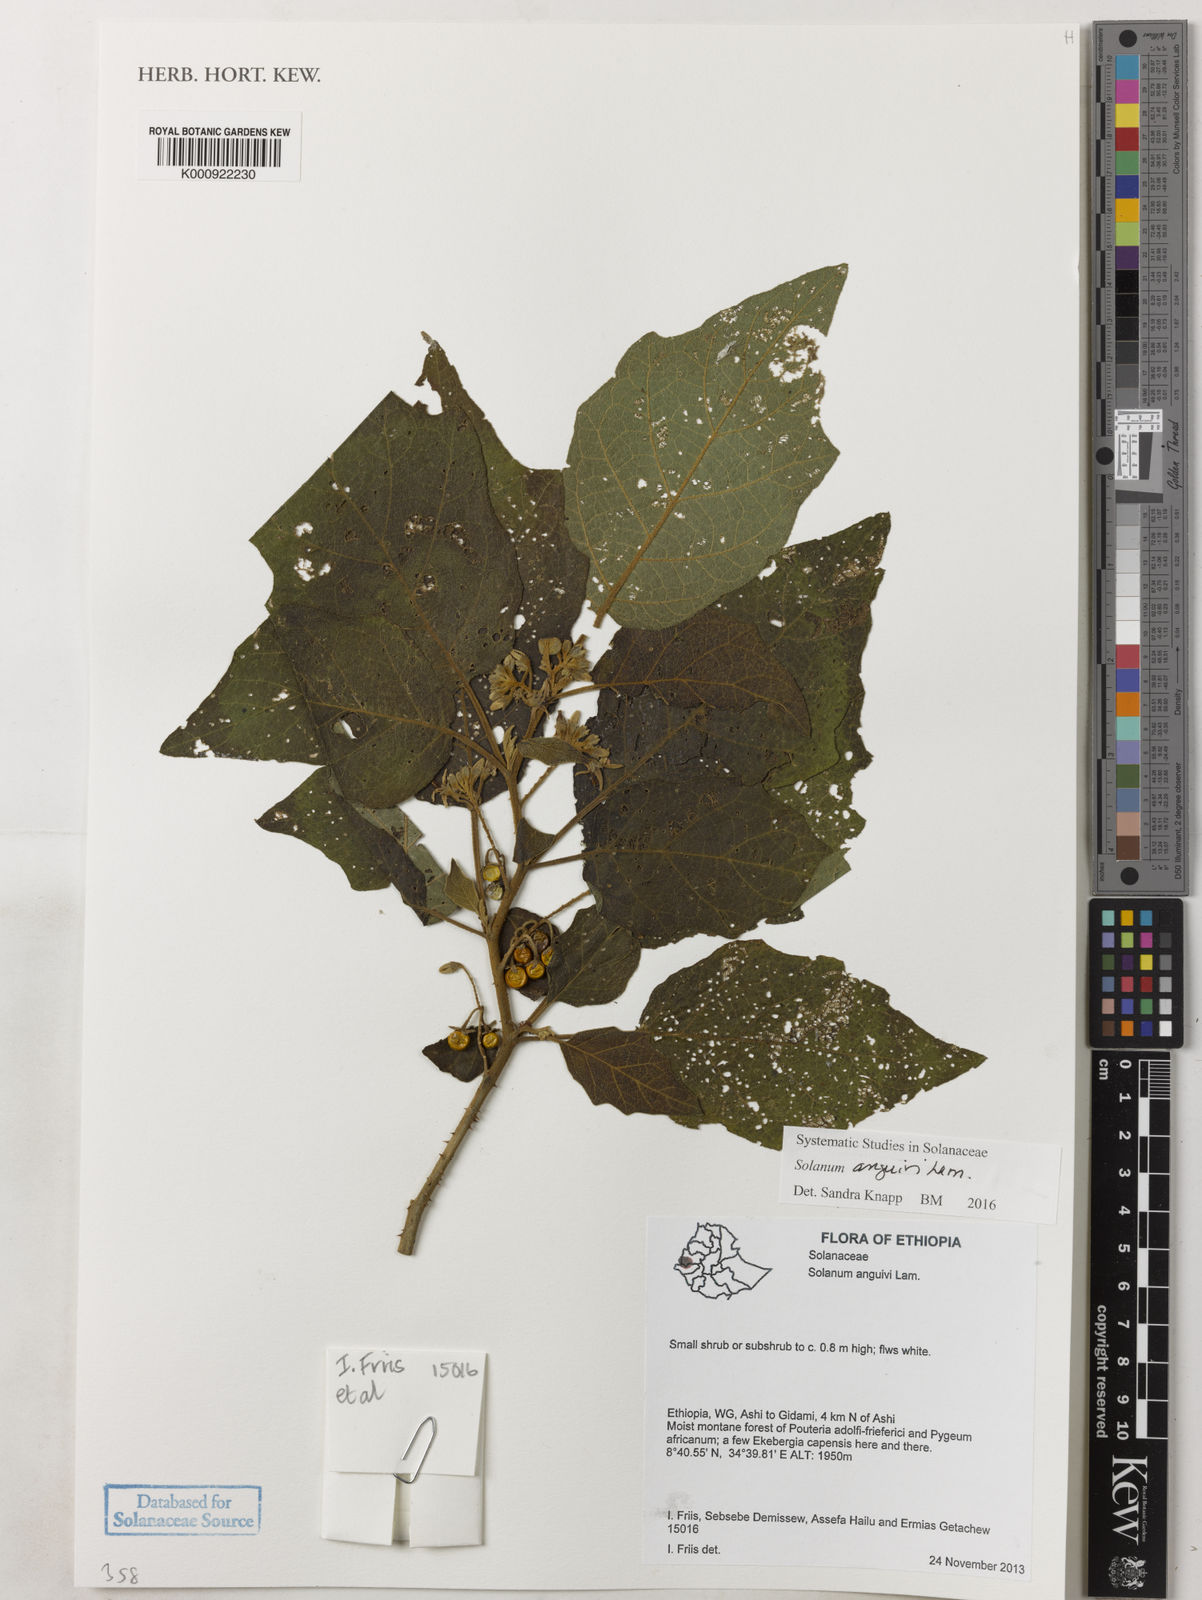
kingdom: Plantae
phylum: Tracheophyta
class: Magnoliopsida
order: Solanales
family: Solanaceae
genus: Solanum
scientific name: Solanum anguivi
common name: Forest bitterberry
